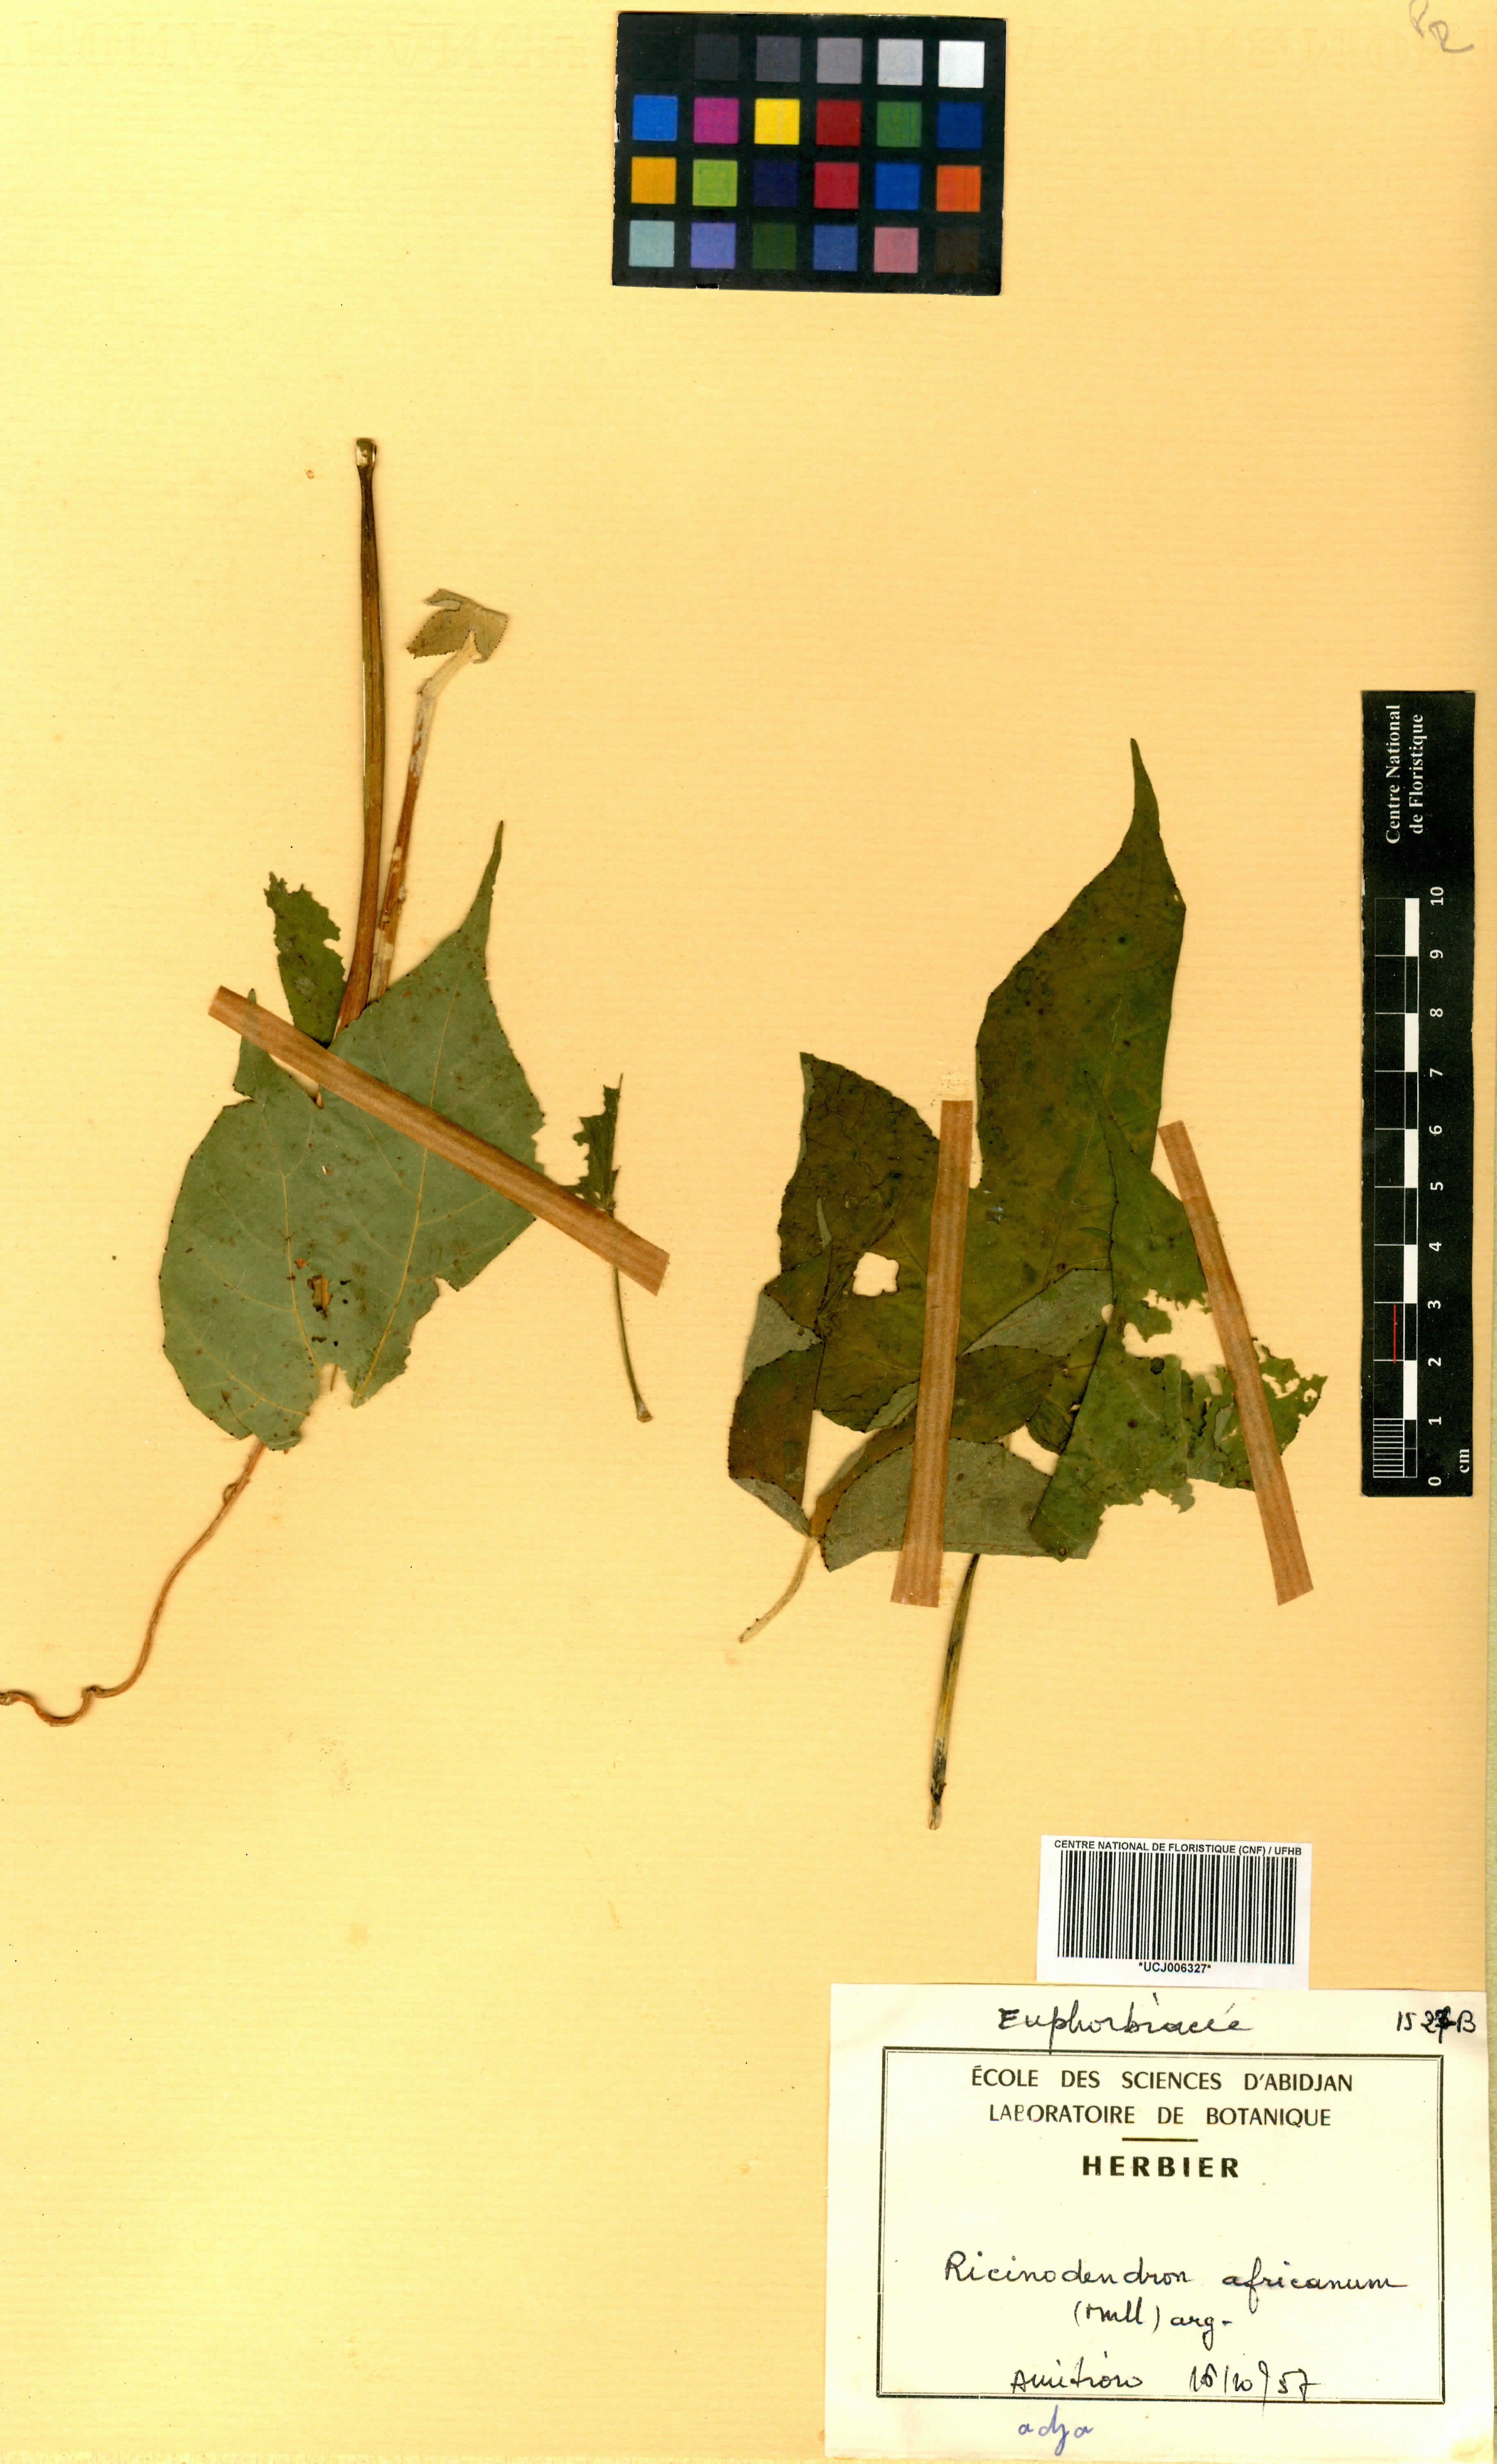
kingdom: Plantae
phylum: Tracheophyta
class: Magnoliopsida
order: Malpighiales
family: Euphorbiaceae
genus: Ricinodendron
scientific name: Ricinodendron heudelotii
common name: African nut-tree
